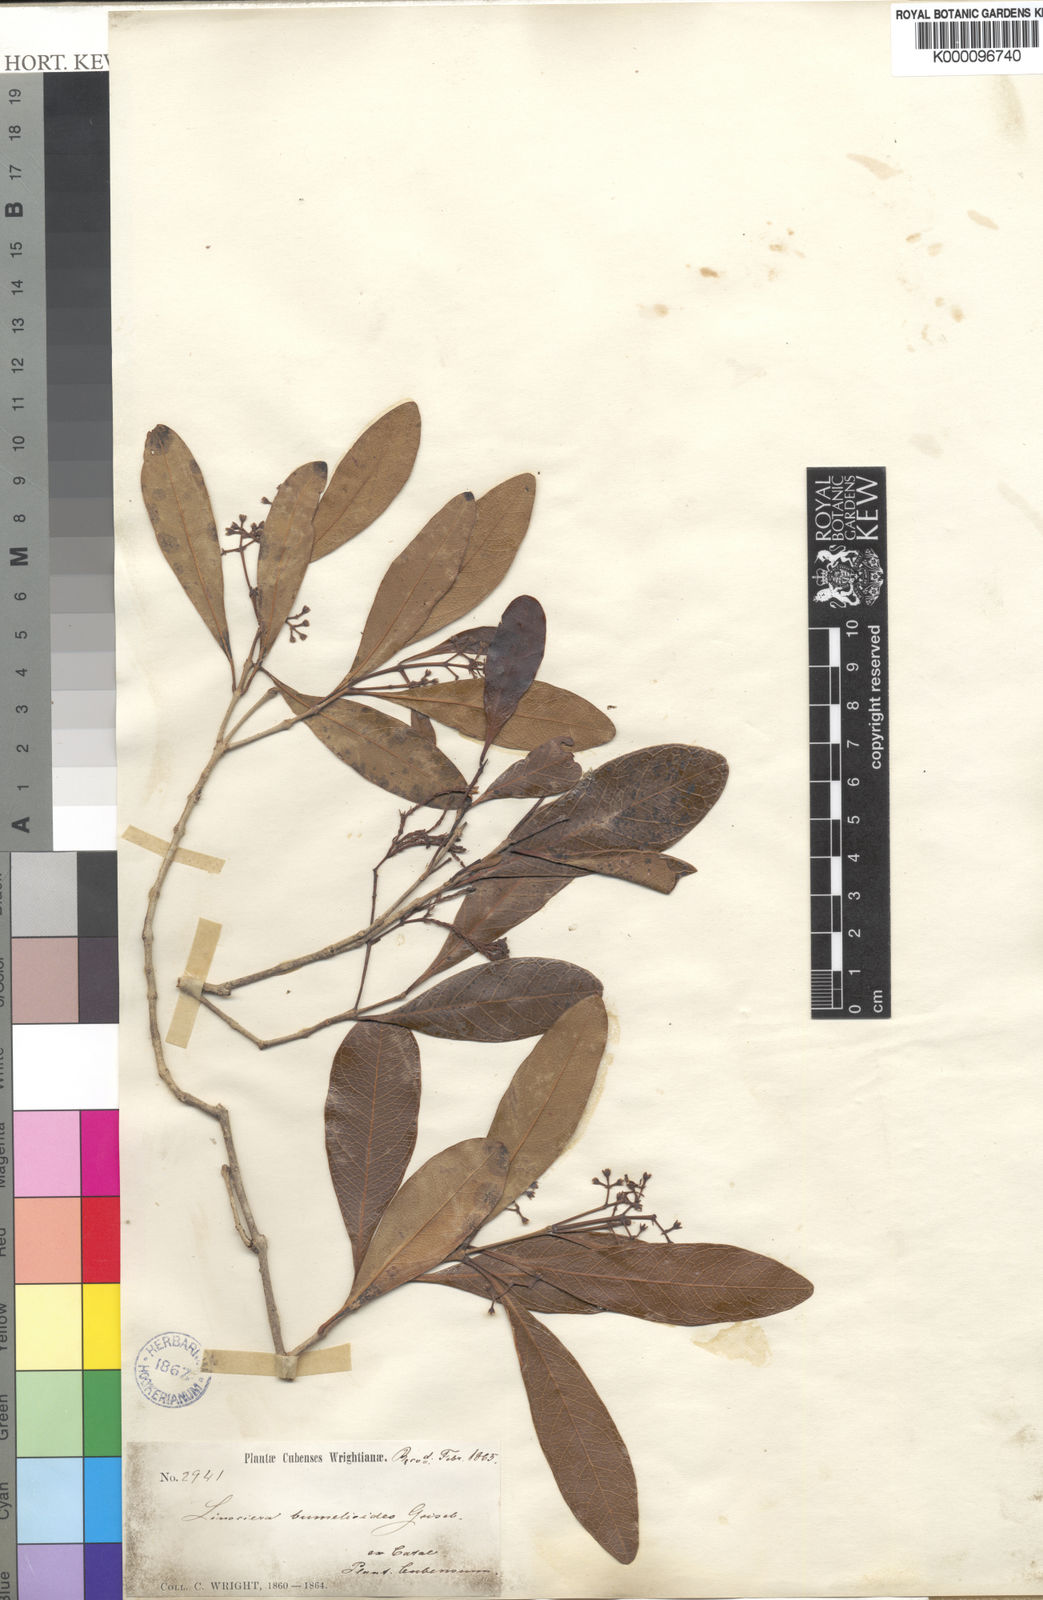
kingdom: Plantae
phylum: Tracheophyta
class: Magnoliopsida
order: Lamiales
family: Oleaceae
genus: Chionanthus
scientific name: Chionanthus bumelioides
